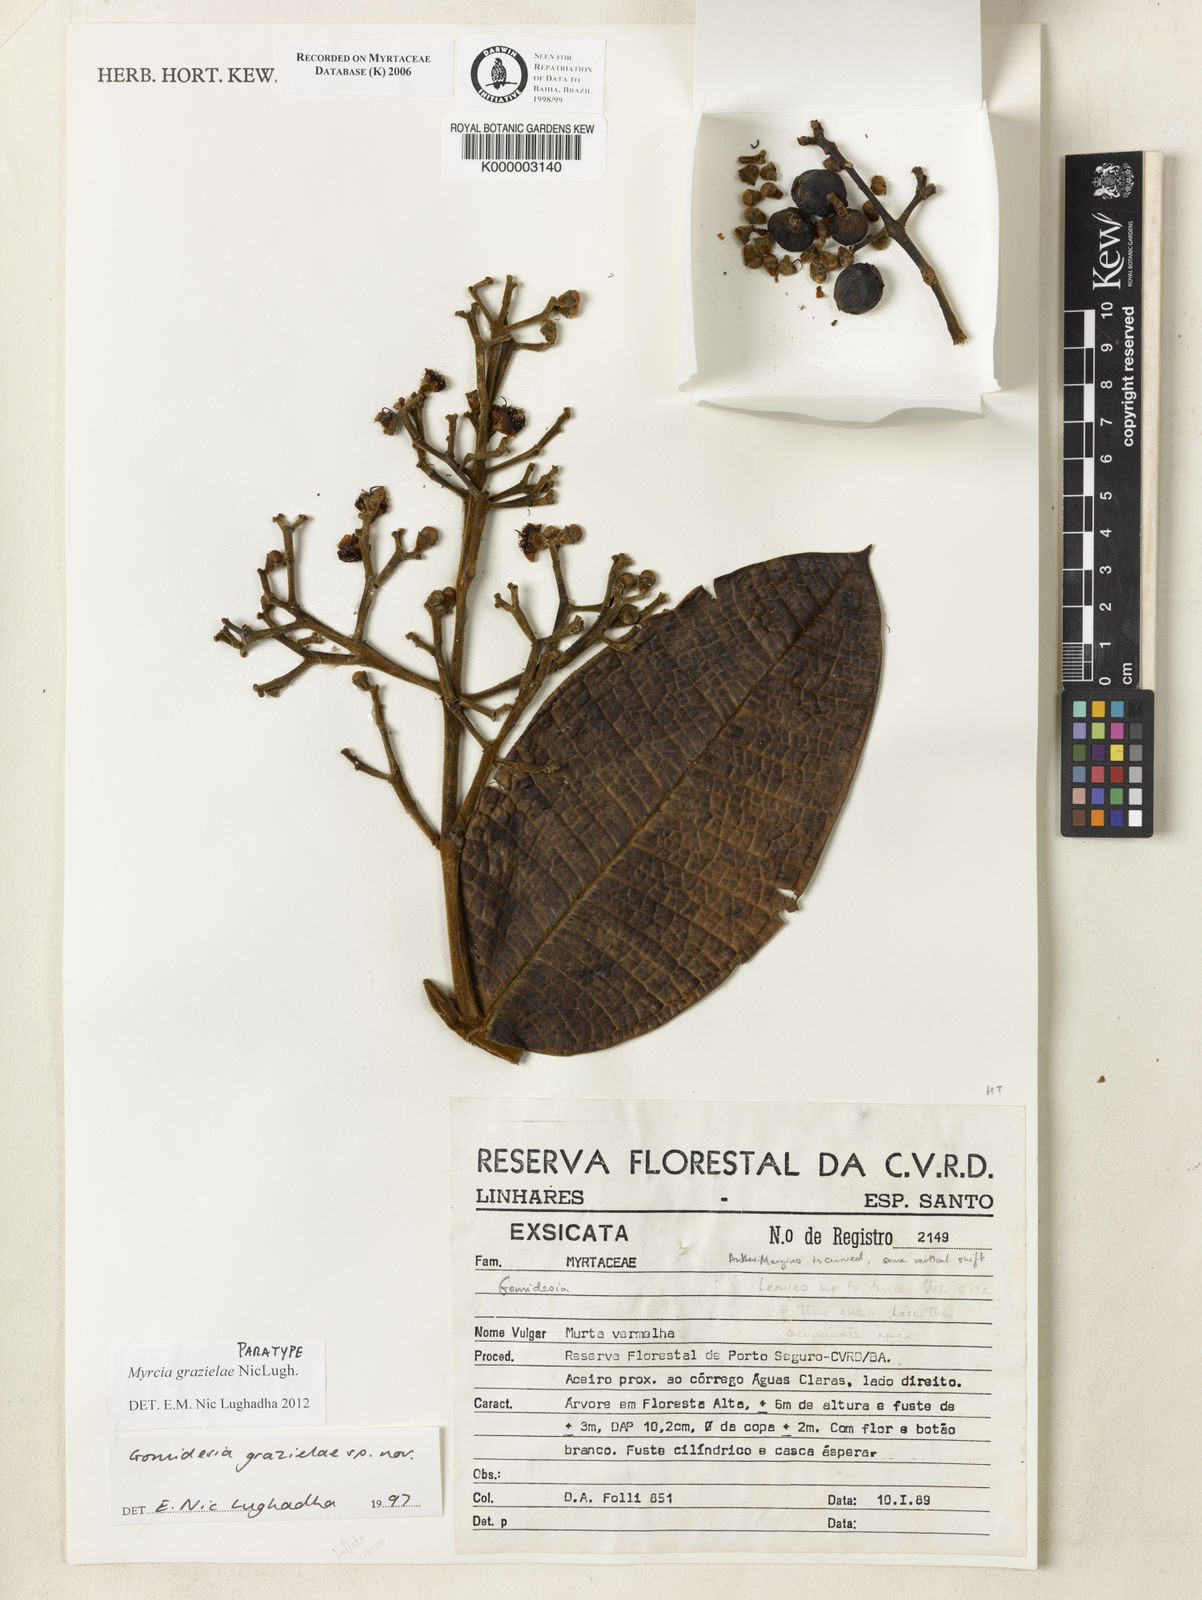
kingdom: Plantae
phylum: Tracheophyta
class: Magnoliopsida
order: Myrtales
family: Myrtaceae
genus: Myrcia
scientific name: Myrcia grazielae
